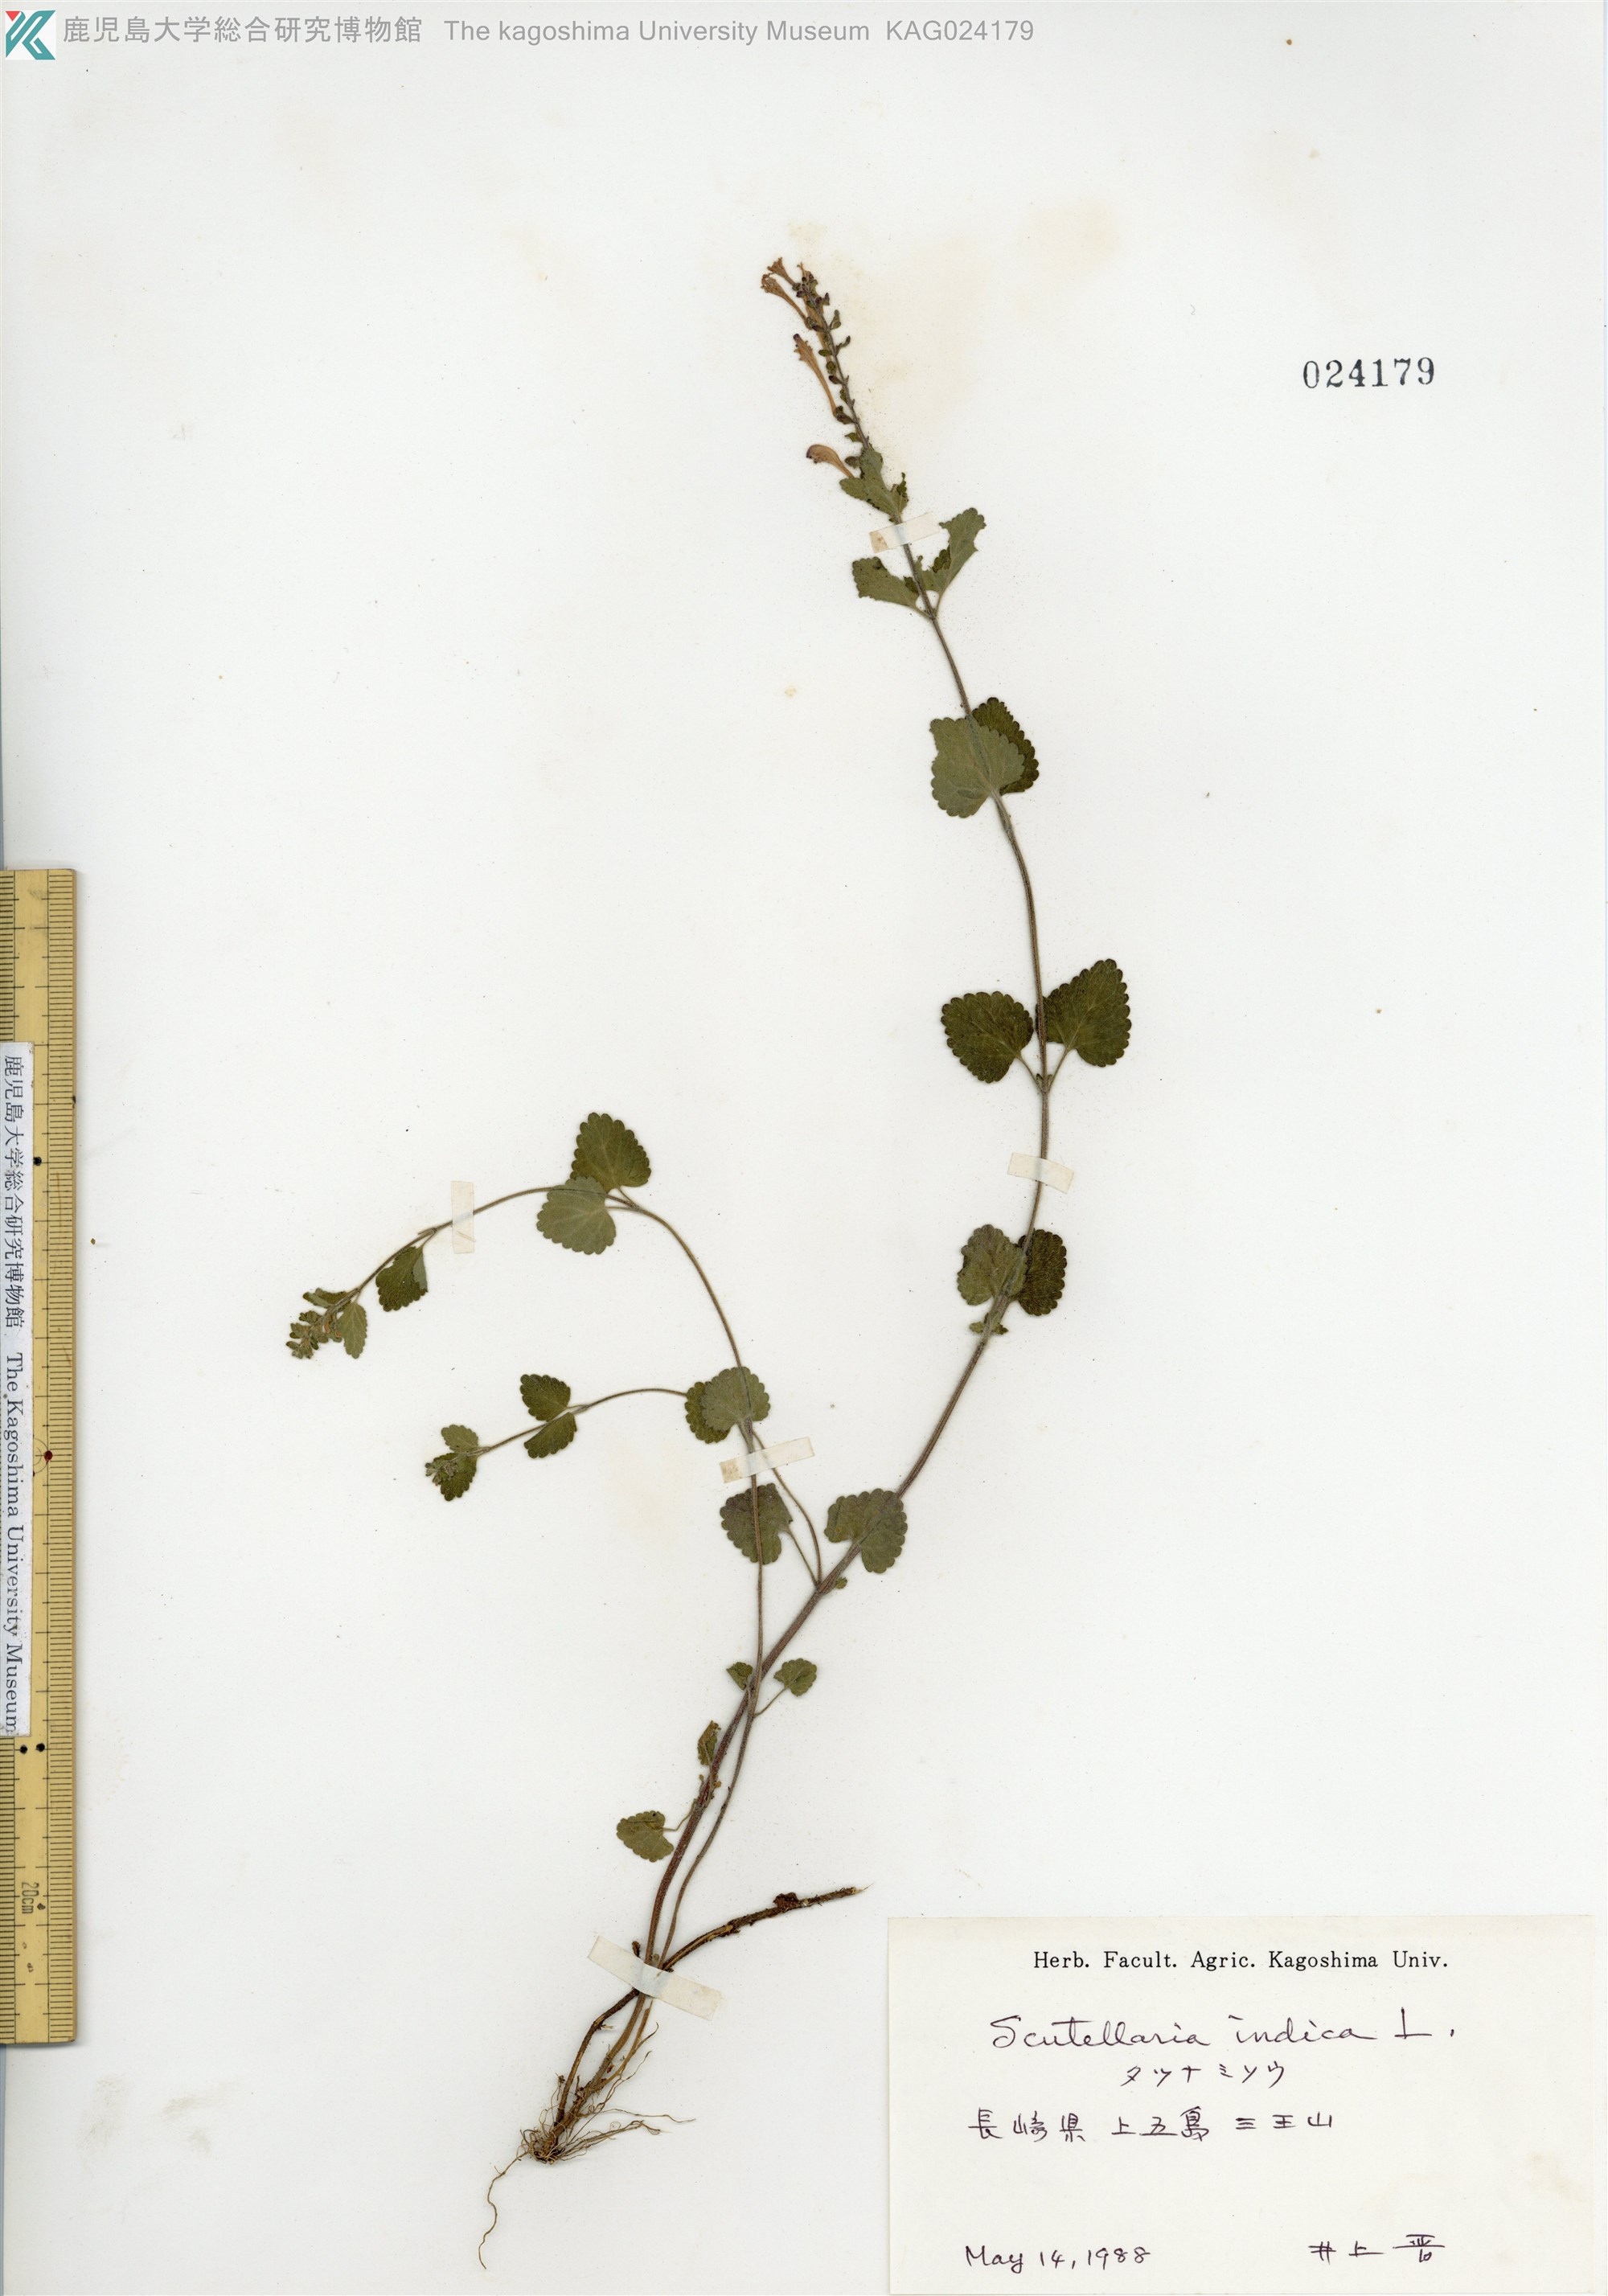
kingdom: Plantae
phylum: Tracheophyta
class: Magnoliopsida
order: Lamiales
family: Lamiaceae
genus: Scutellaria
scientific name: Scutellaria indica
